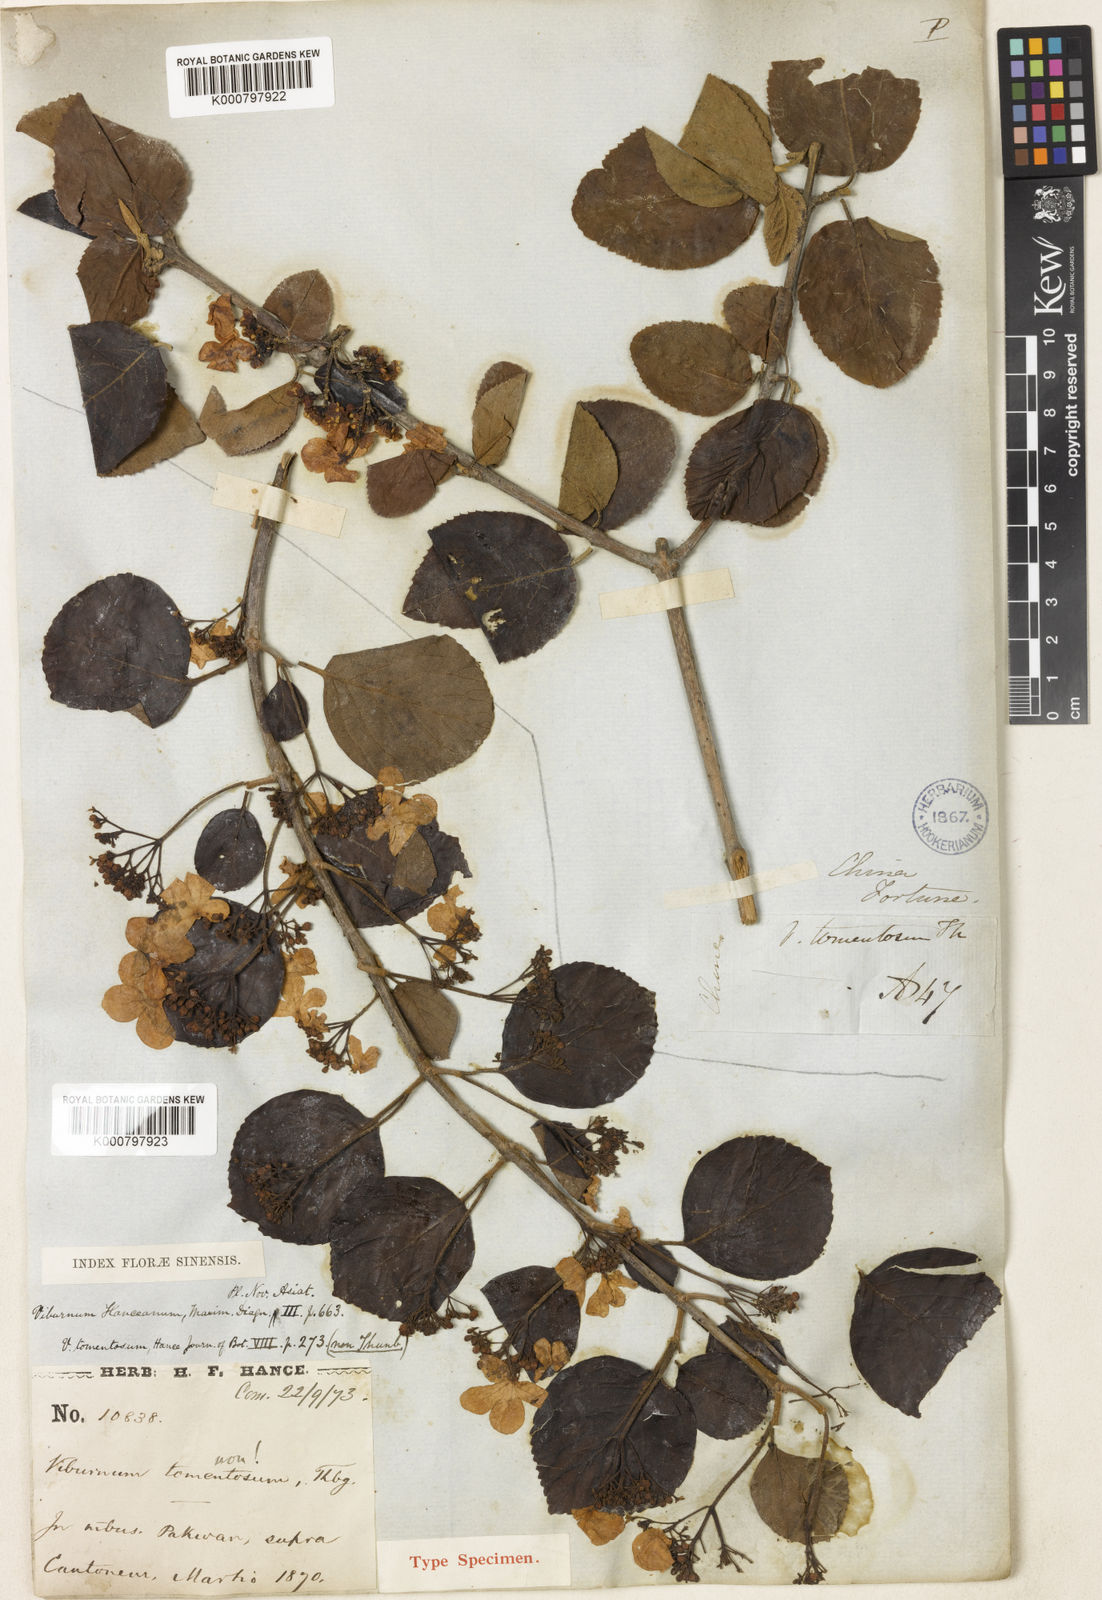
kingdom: Plantae
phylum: Tracheophyta
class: Magnoliopsida
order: Dipsacales
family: Viburnaceae
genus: Viburnum
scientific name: Viburnum hanceanum
